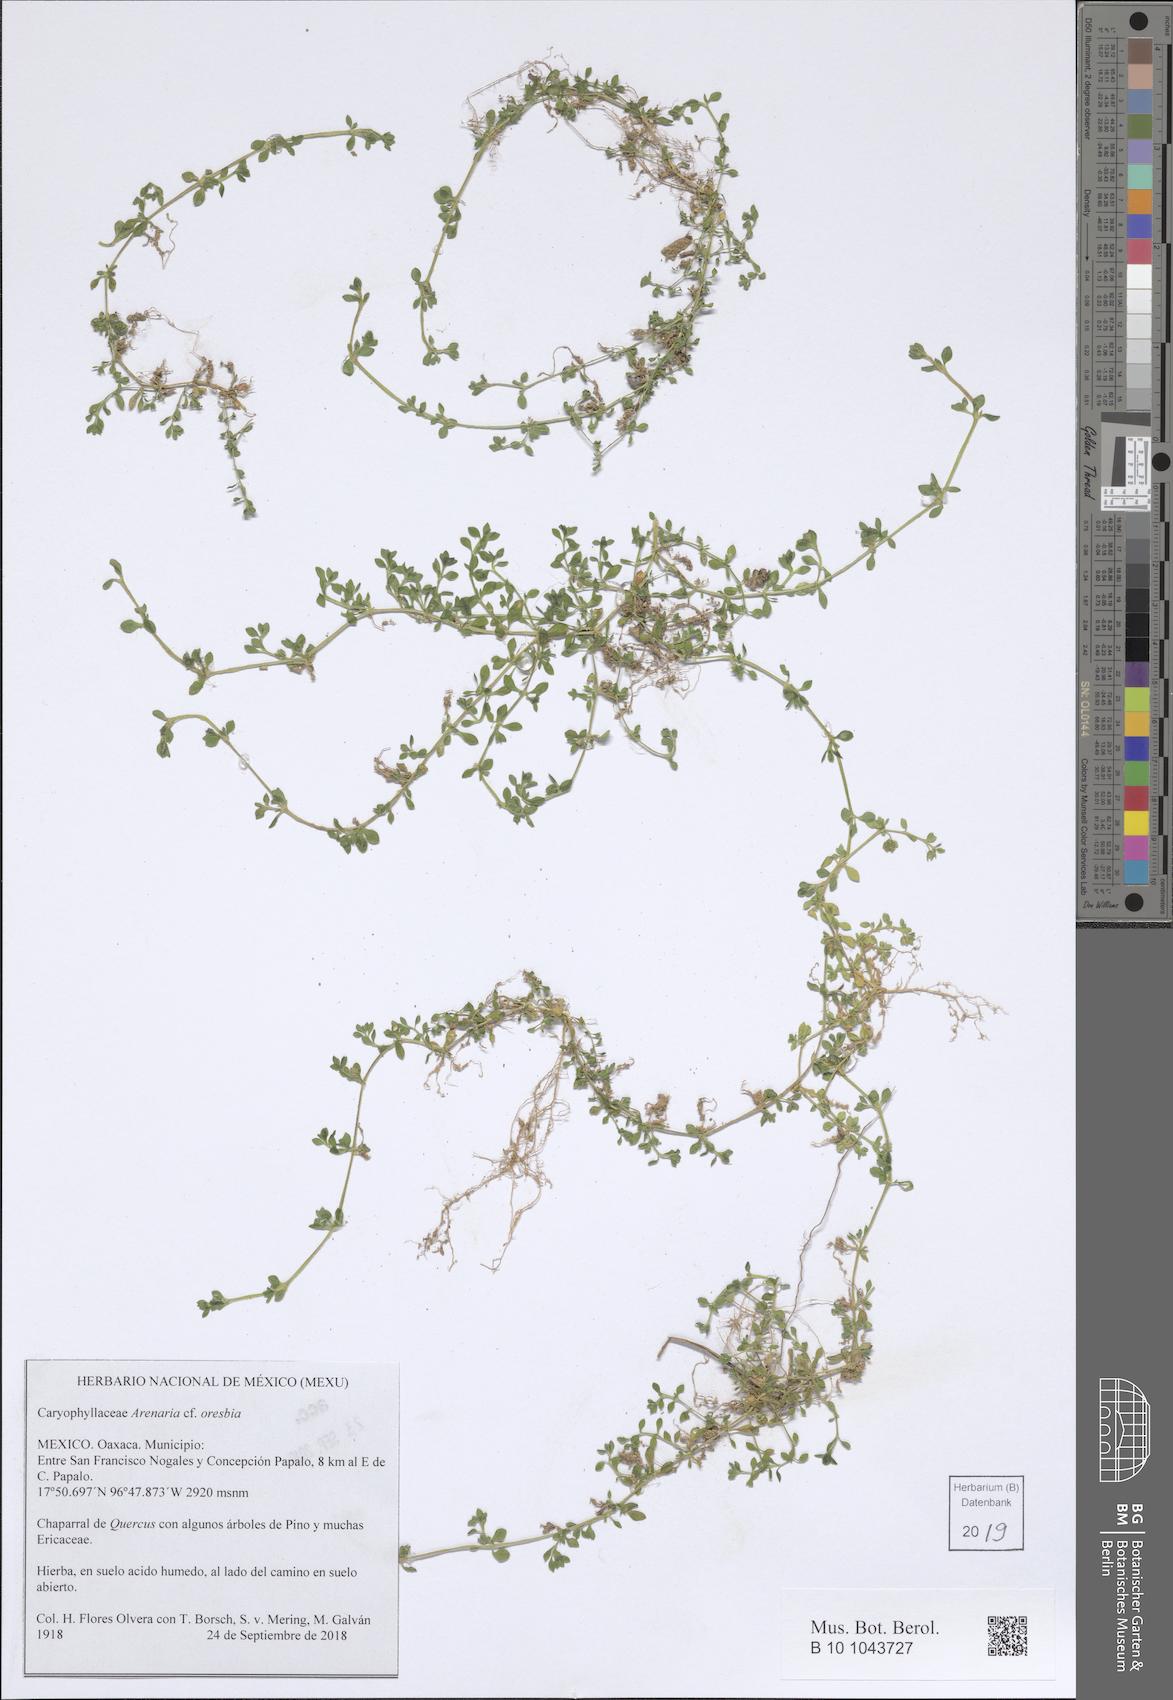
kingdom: Plantae
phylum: Tracheophyta
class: Magnoliopsida
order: Caryophyllales
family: Caryophyllaceae
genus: Arenaria
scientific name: Arenaria oresbia
